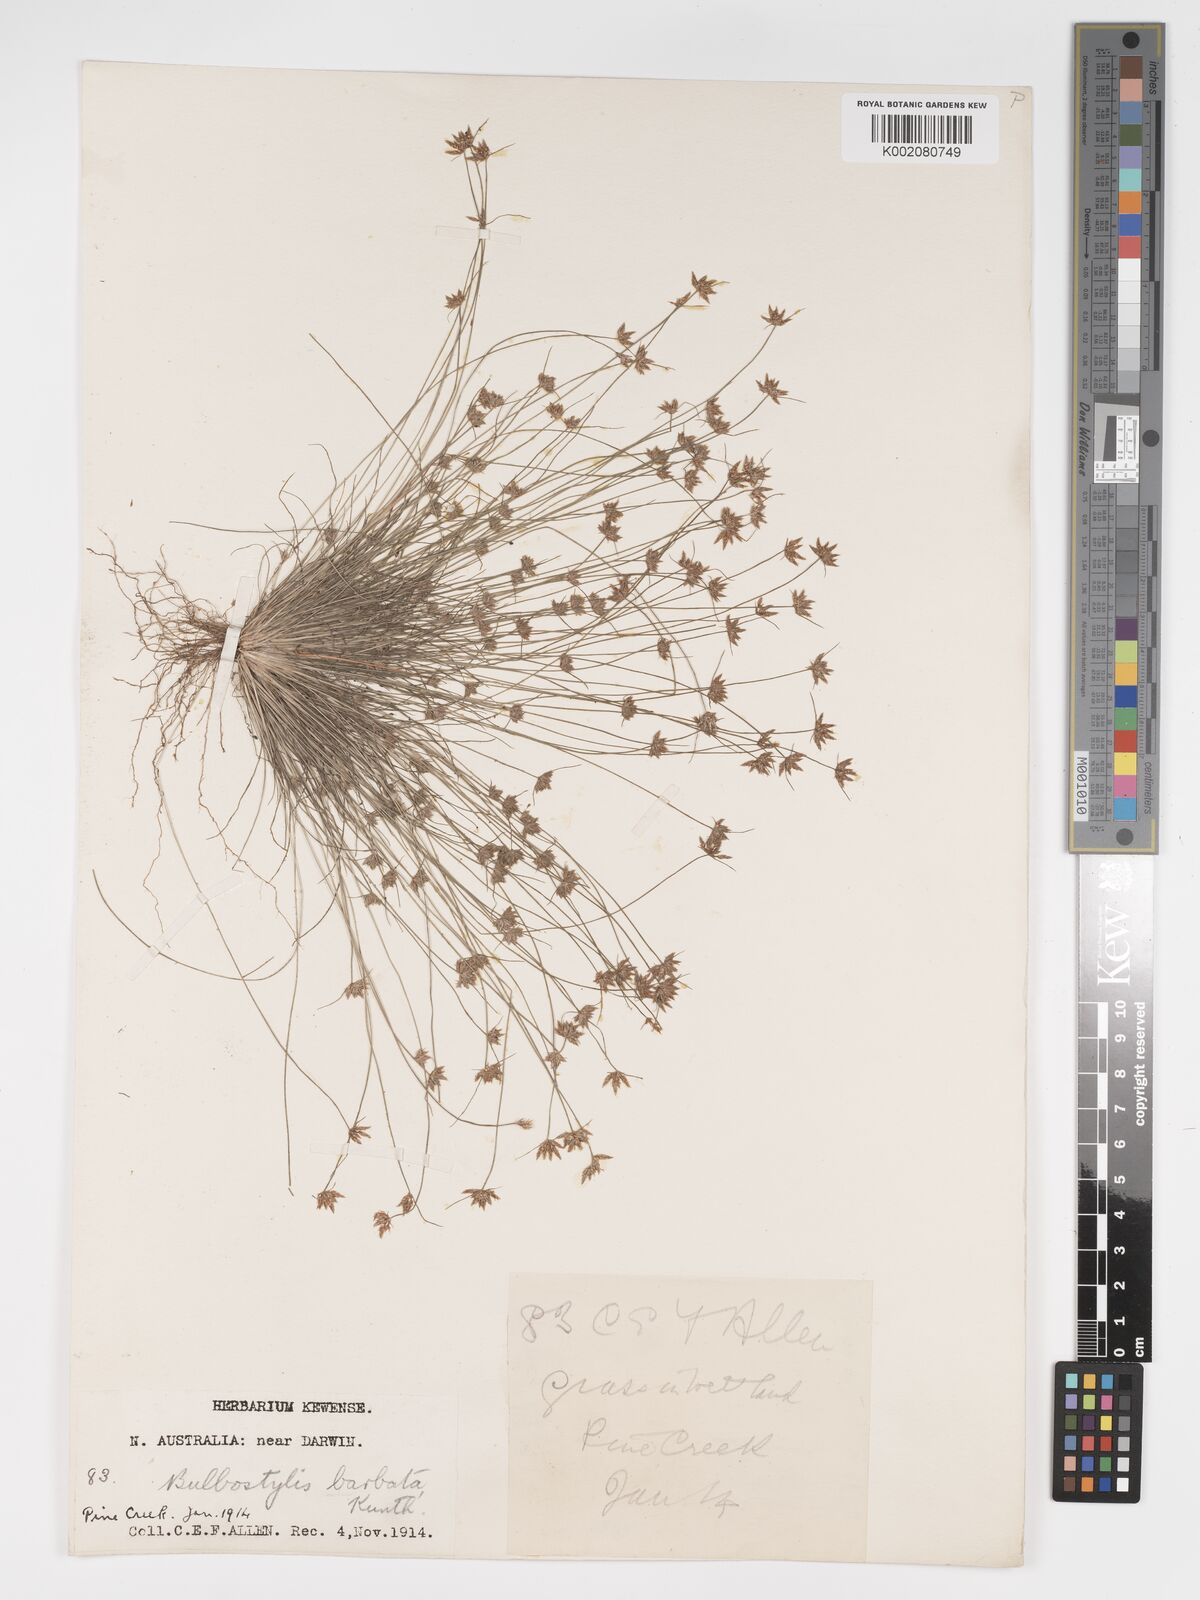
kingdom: Plantae
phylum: Tracheophyta
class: Liliopsida
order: Poales
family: Cyperaceae
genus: Bulbostylis
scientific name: Bulbostylis barbata
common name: Watergrass
